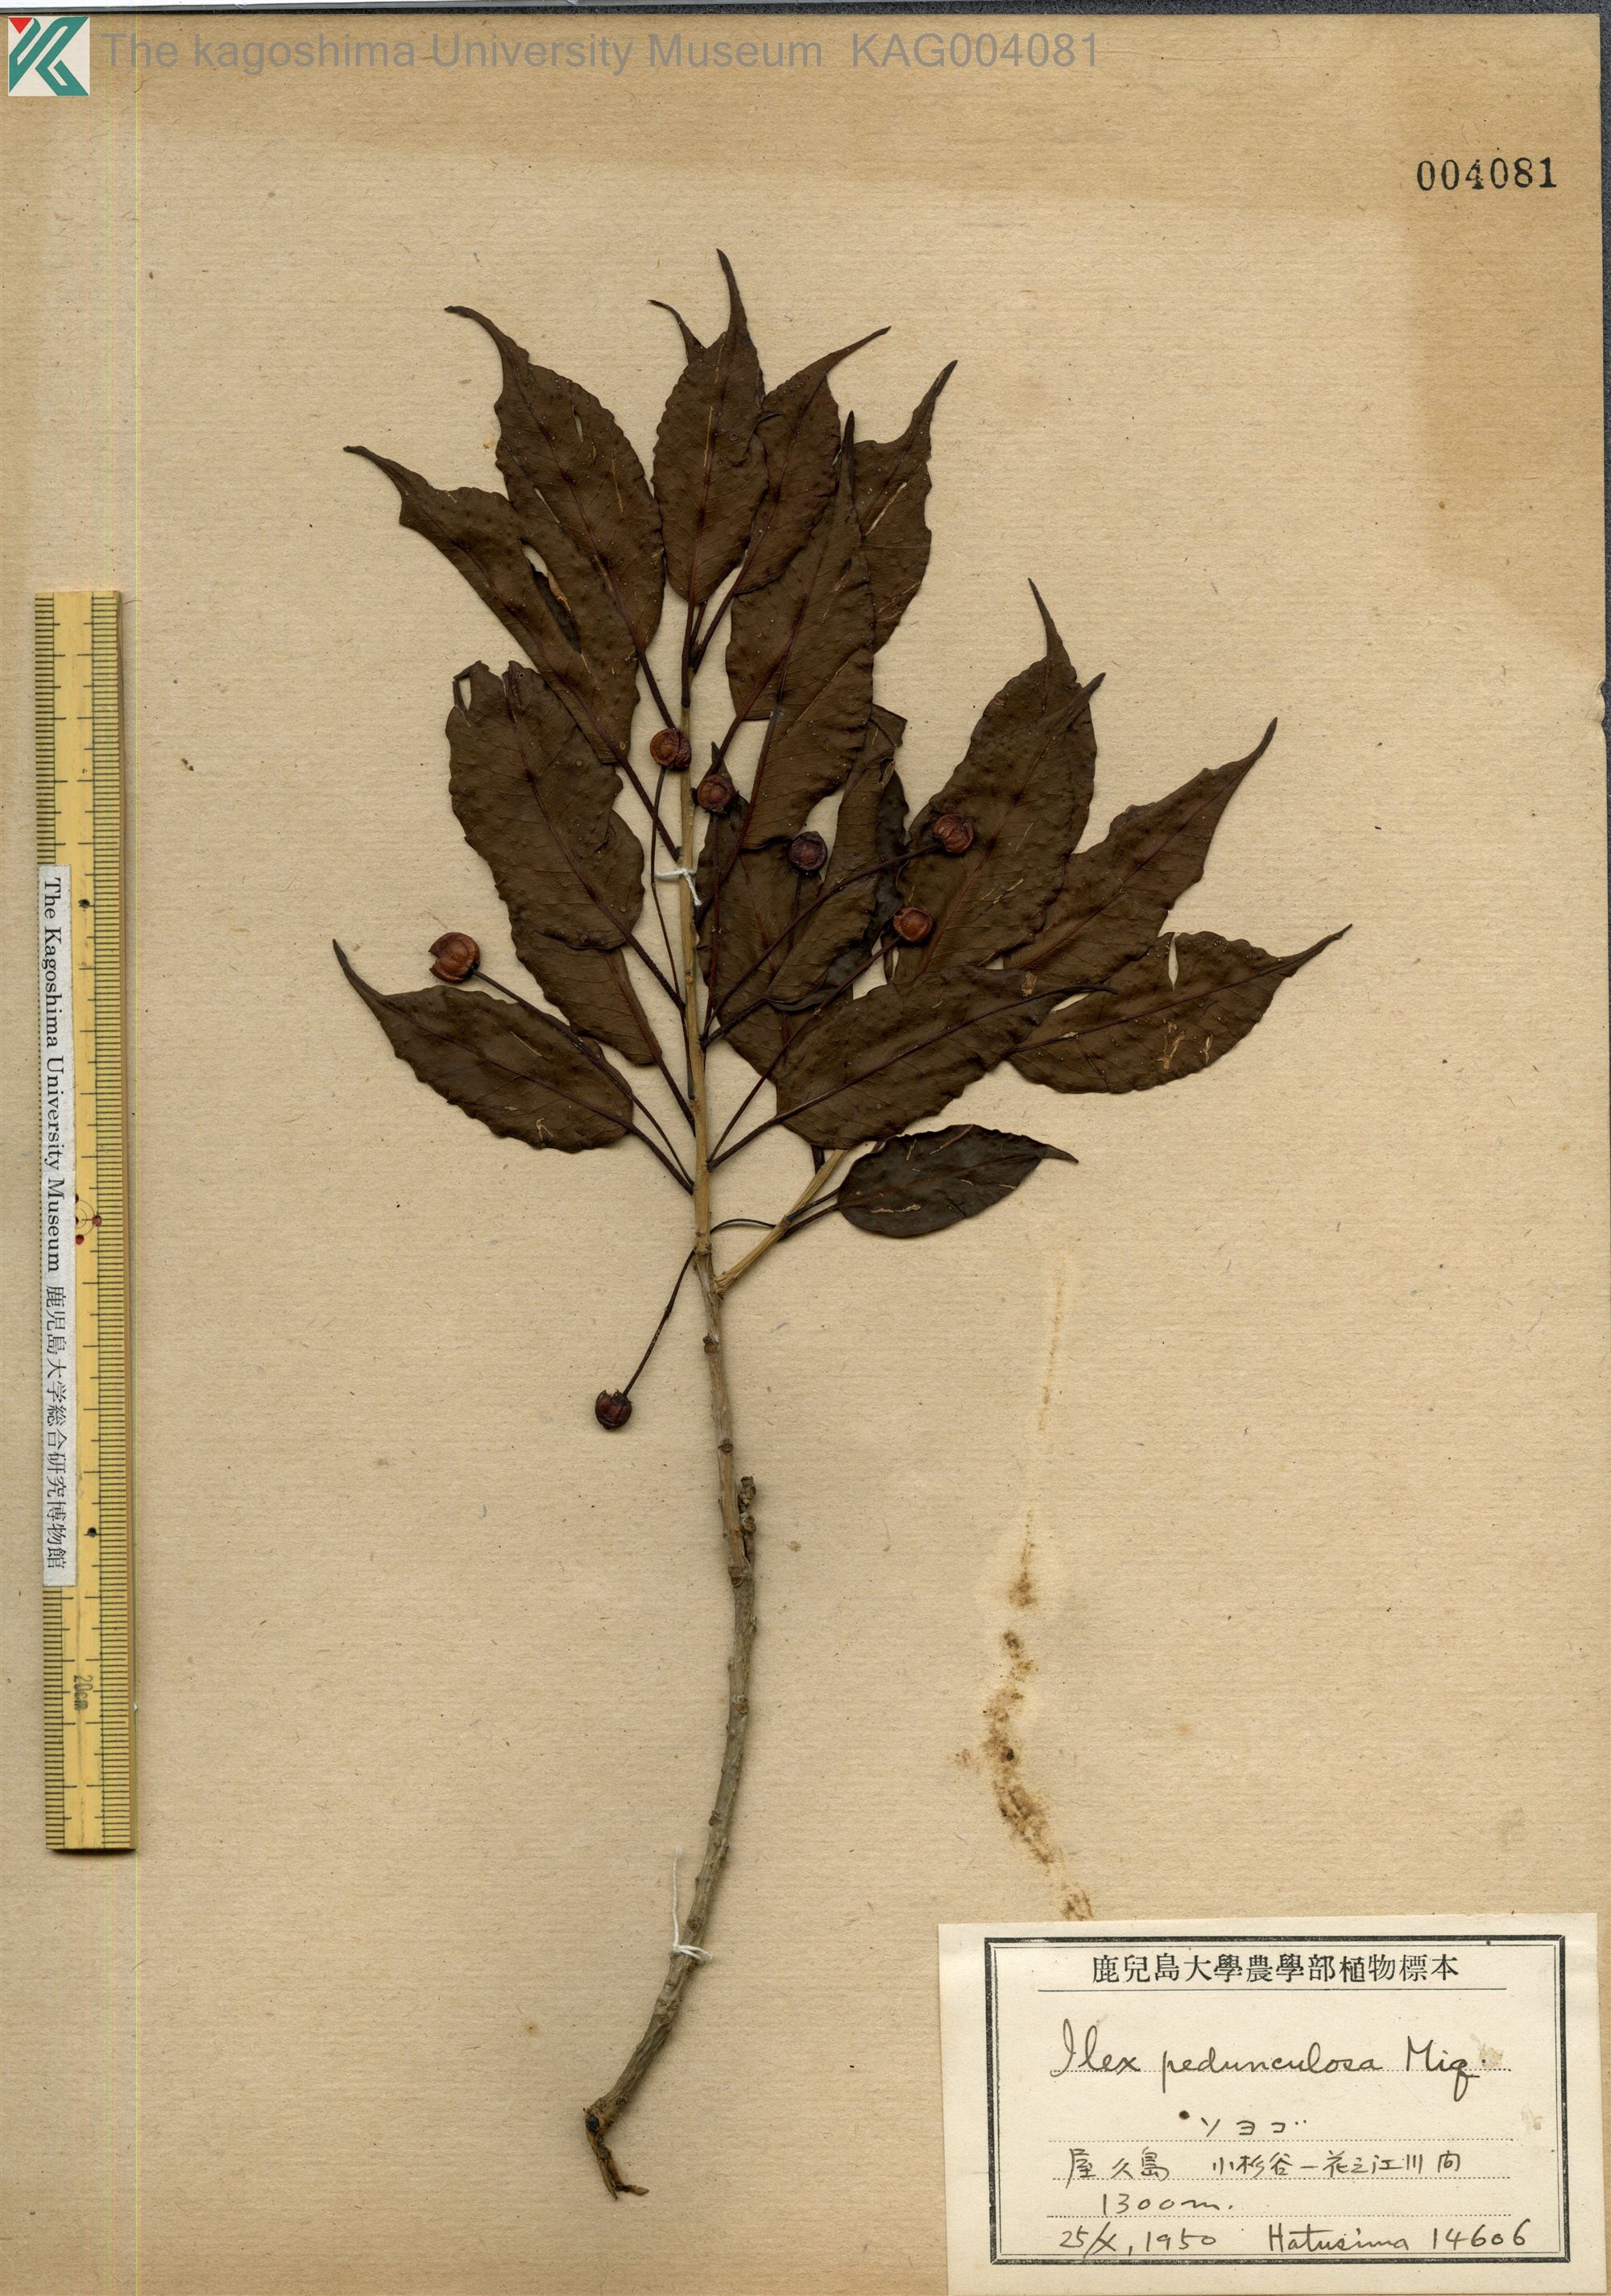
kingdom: Plantae
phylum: Tracheophyta
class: Magnoliopsida
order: Aquifoliales
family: Aquifoliaceae
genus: Ilex
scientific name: Ilex pedunculosa
